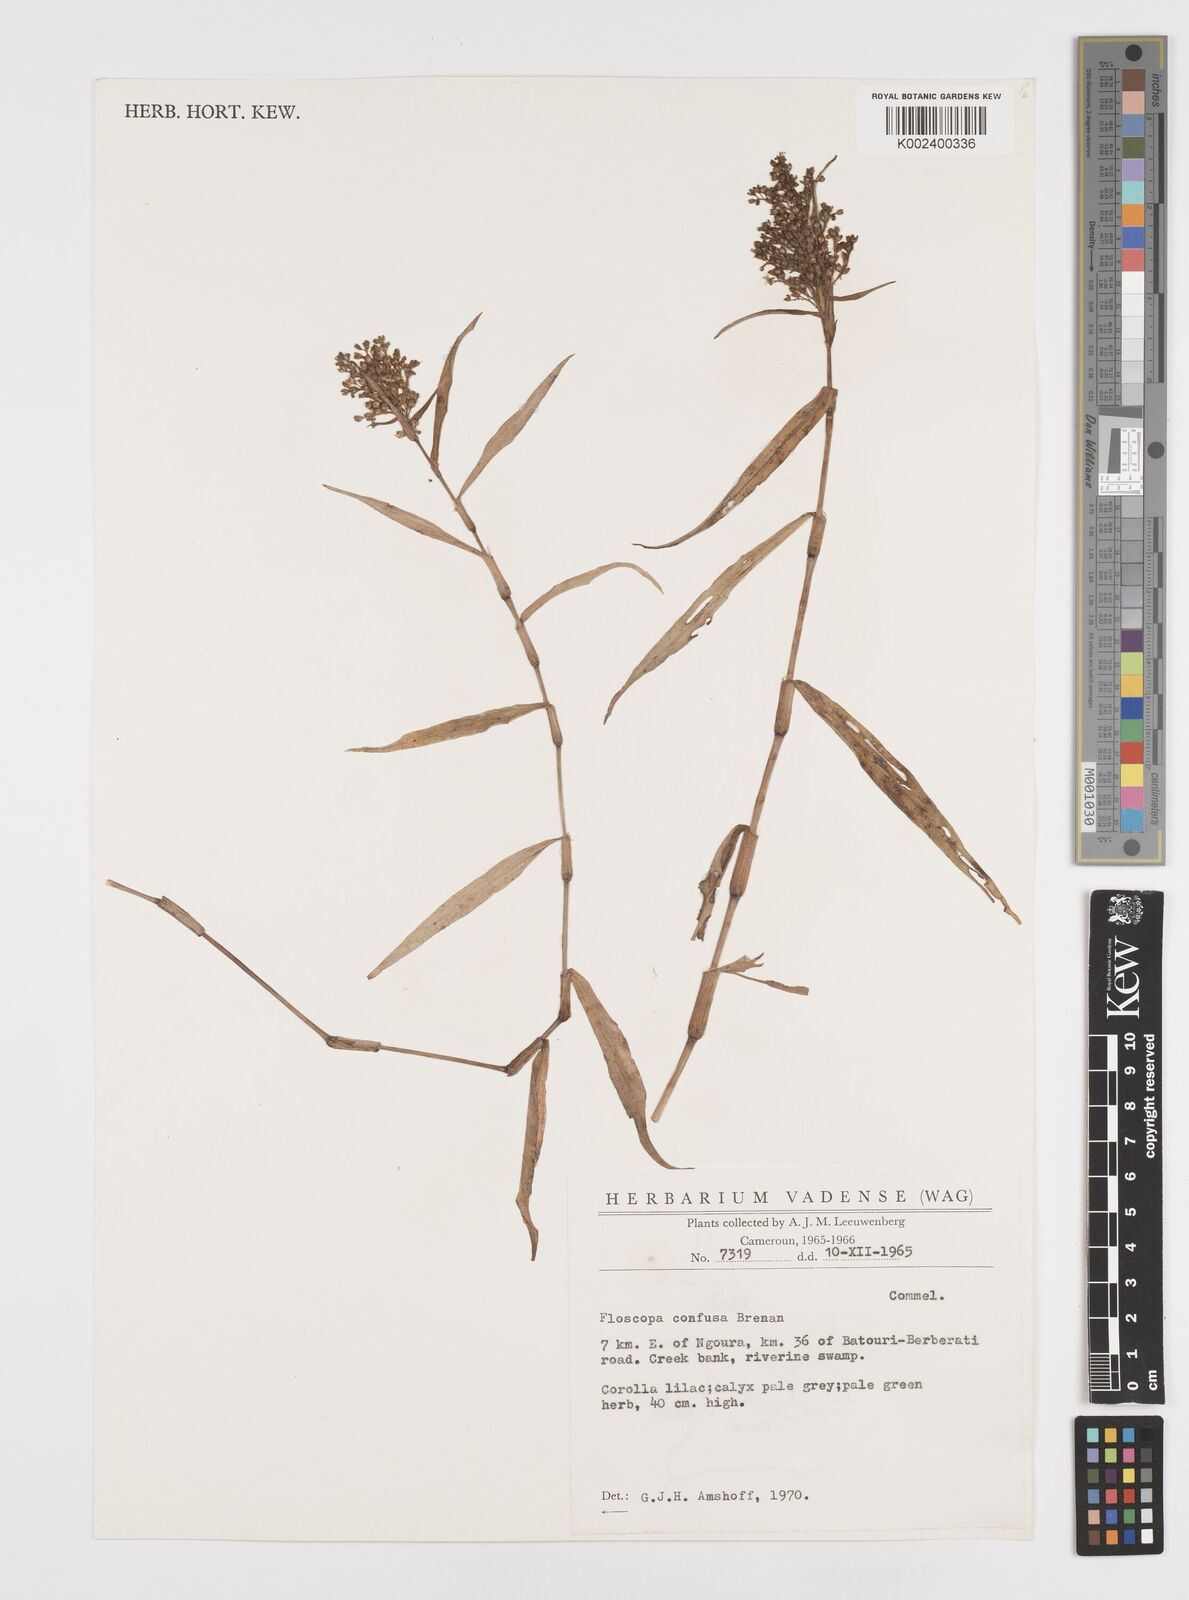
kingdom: Plantae
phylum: Tracheophyta
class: Liliopsida
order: Commelinales
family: Commelinaceae
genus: Floscopa
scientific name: Floscopa confusa
